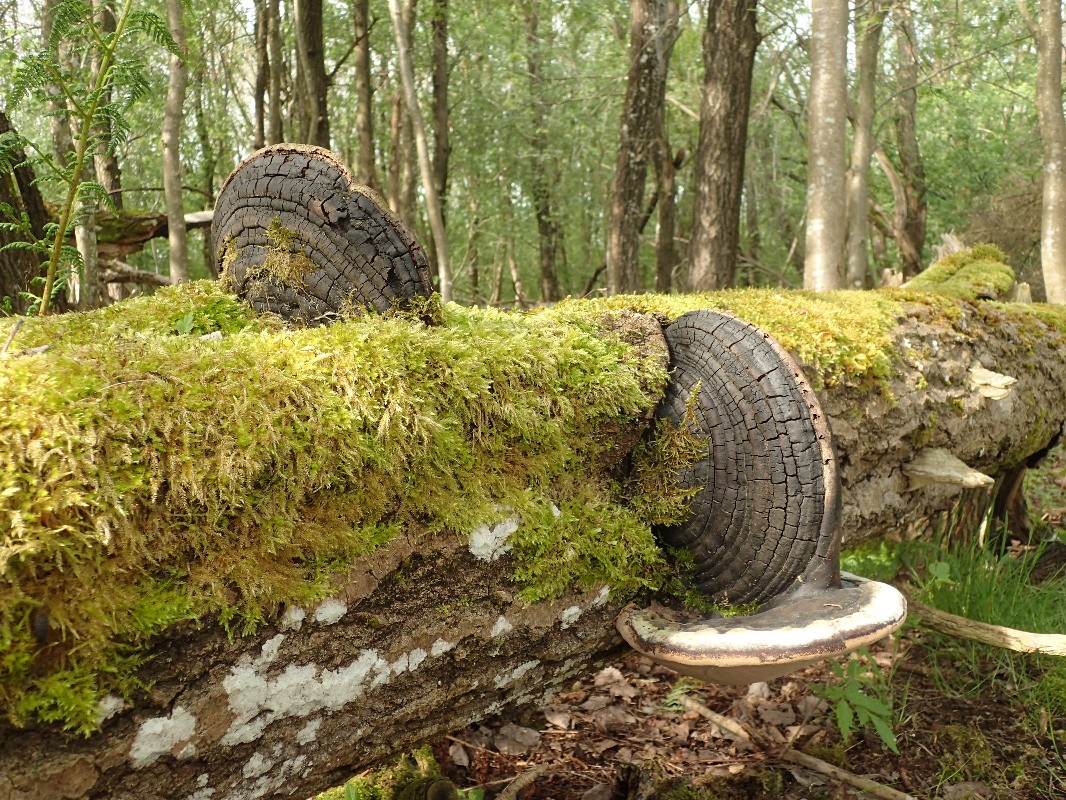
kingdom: Fungi
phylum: Basidiomycota
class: Agaricomycetes
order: Hymenochaetales
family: Hymenochaetaceae
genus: Phellinus
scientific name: Phellinus populicola
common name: poppel-ildporesvamp
